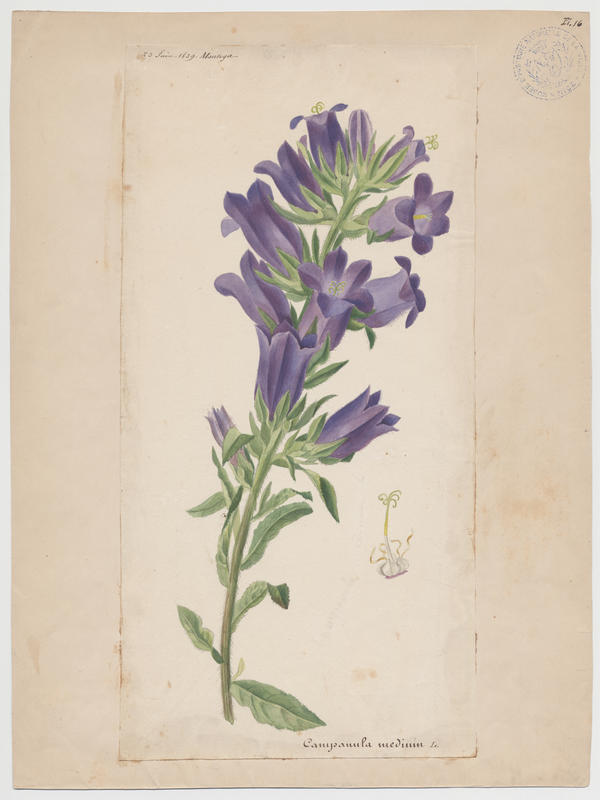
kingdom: Plantae
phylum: Tracheophyta
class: Magnoliopsida
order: Asterales
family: Campanulaceae
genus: Campanula
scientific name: Campanula medium
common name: Canterbury bells
